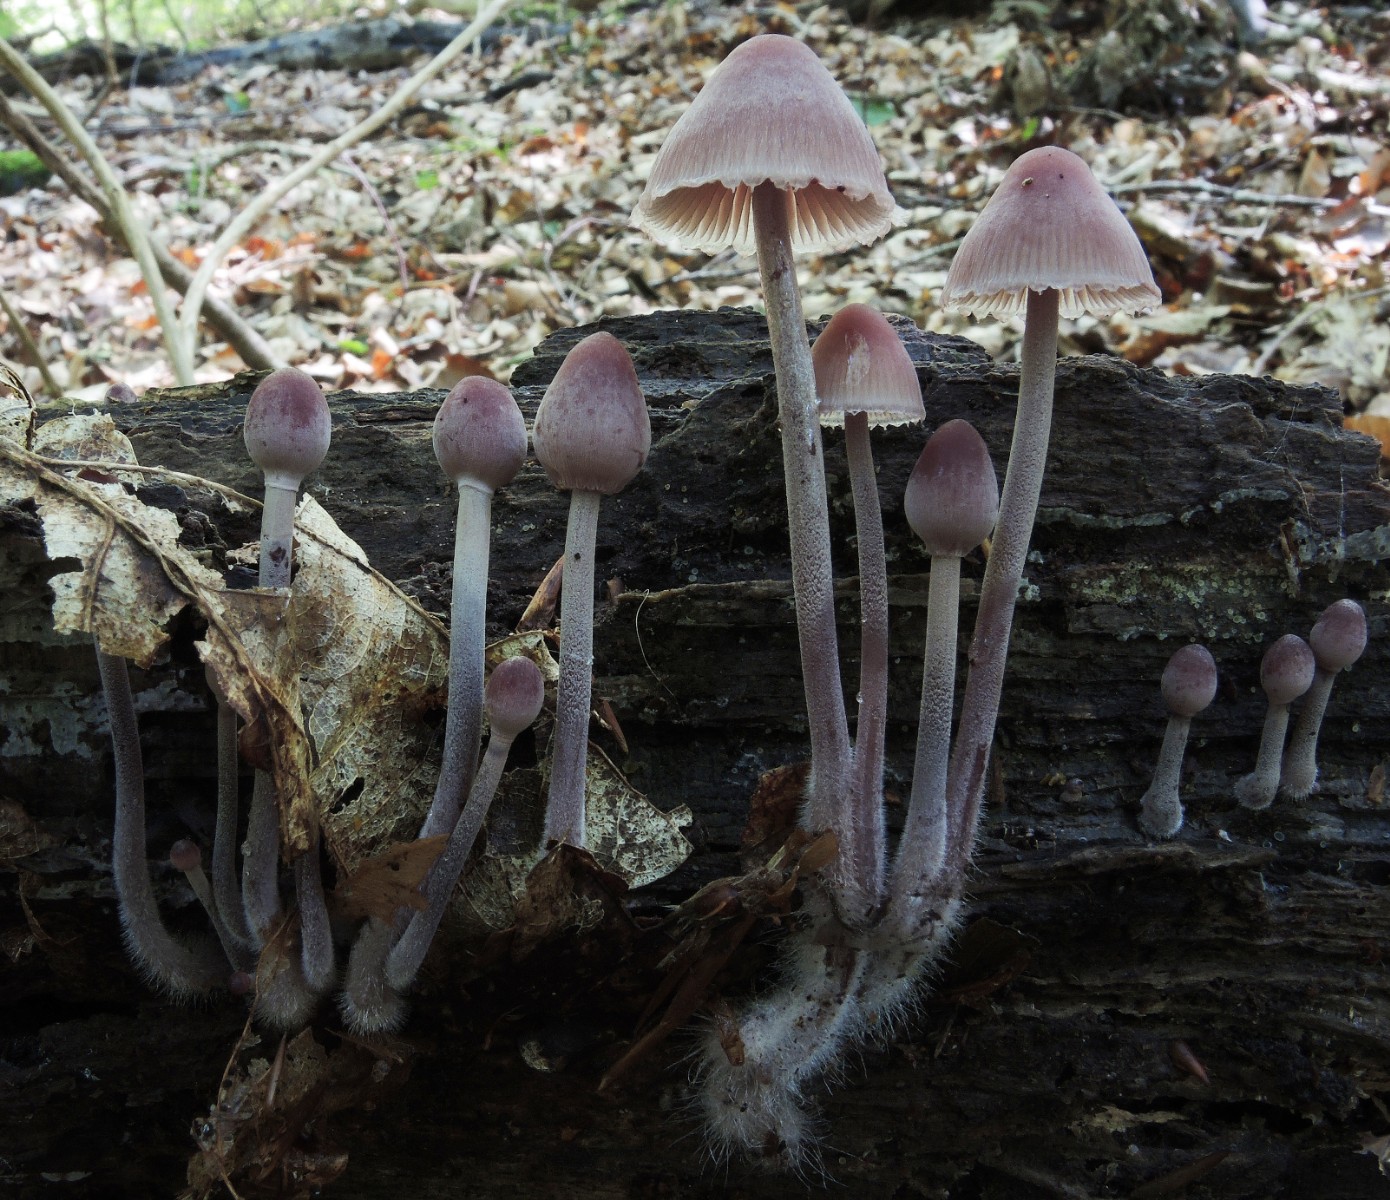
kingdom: Fungi
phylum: Basidiomycota
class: Agaricomycetes
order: Agaricales
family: Mycenaceae
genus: Mycena
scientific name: Mycena haematopus
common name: blødende huesvamp
